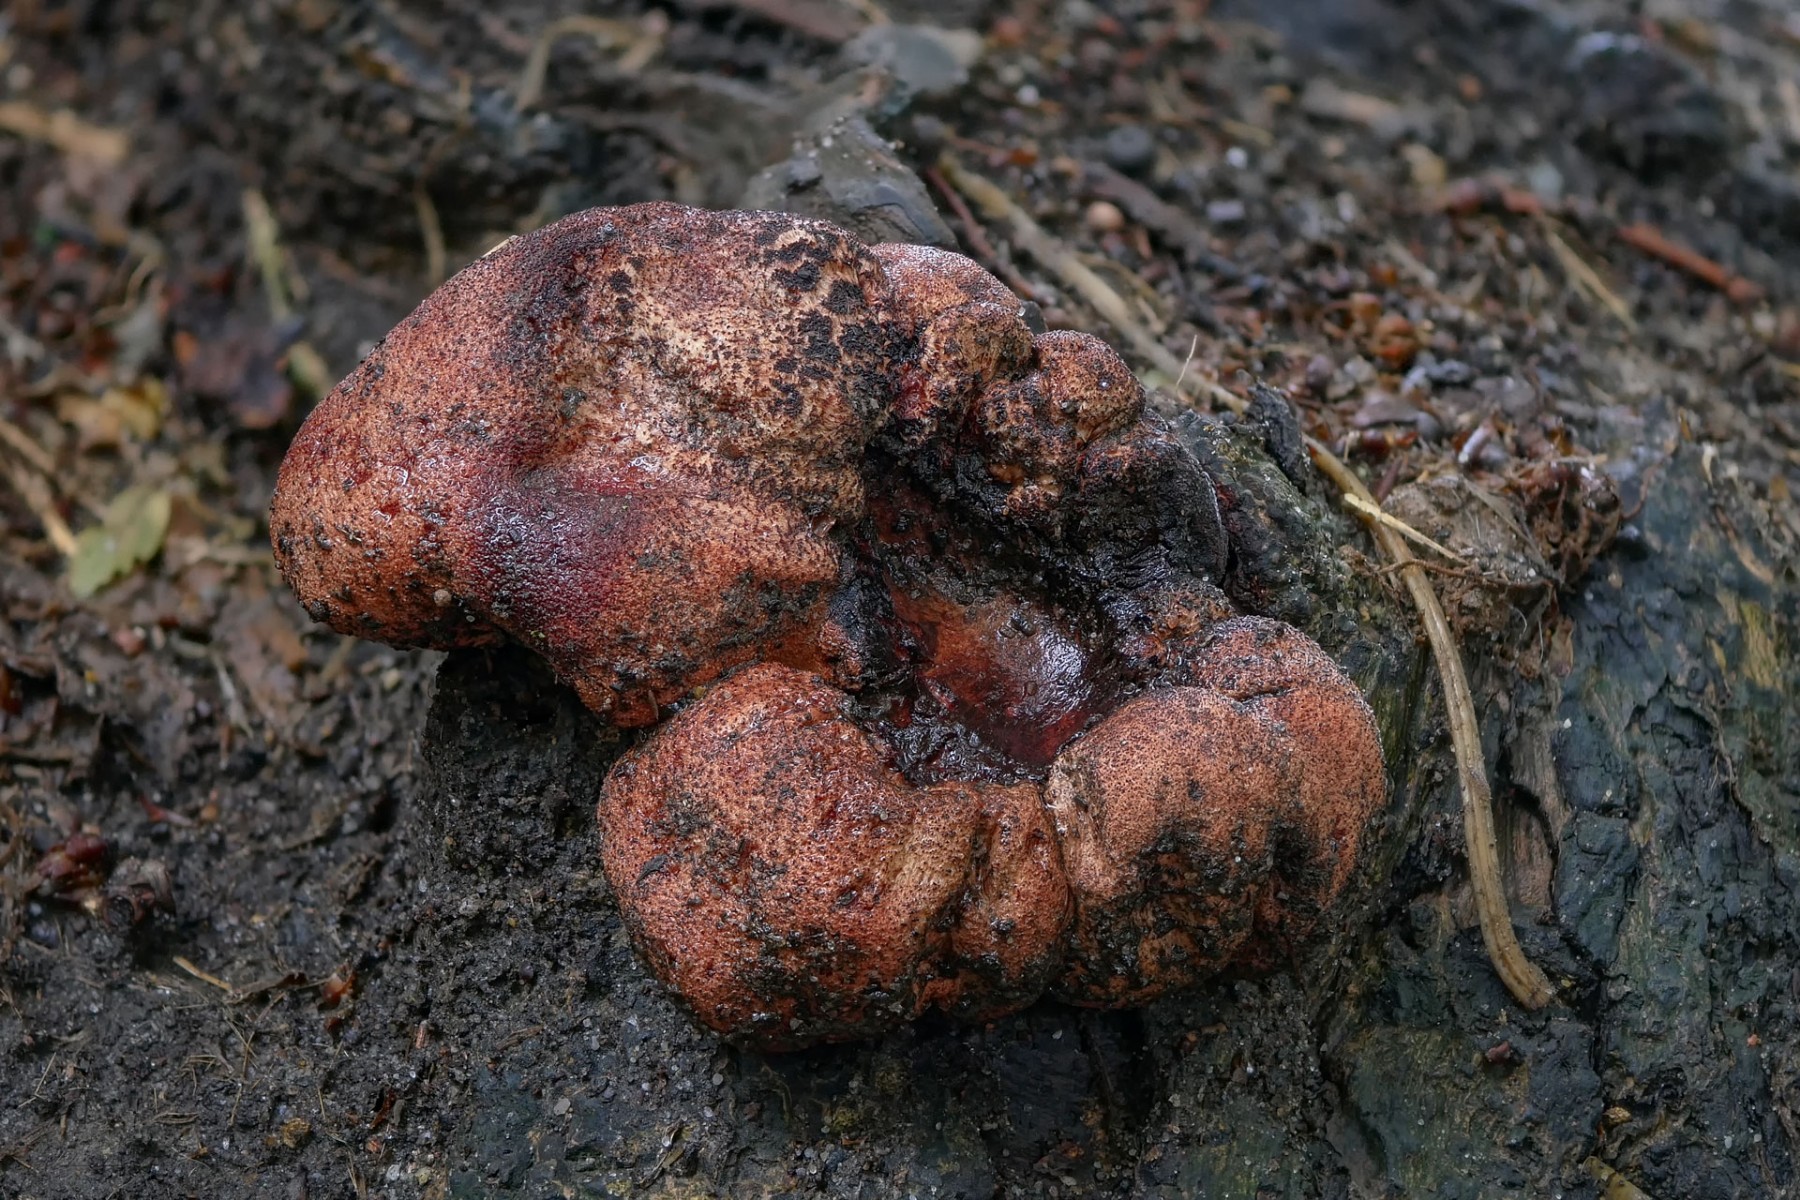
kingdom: Fungi
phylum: Basidiomycota
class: Agaricomycetes
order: Agaricales
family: Fistulinaceae
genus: Fistulina
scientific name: Fistulina hepatica
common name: oksetunge
